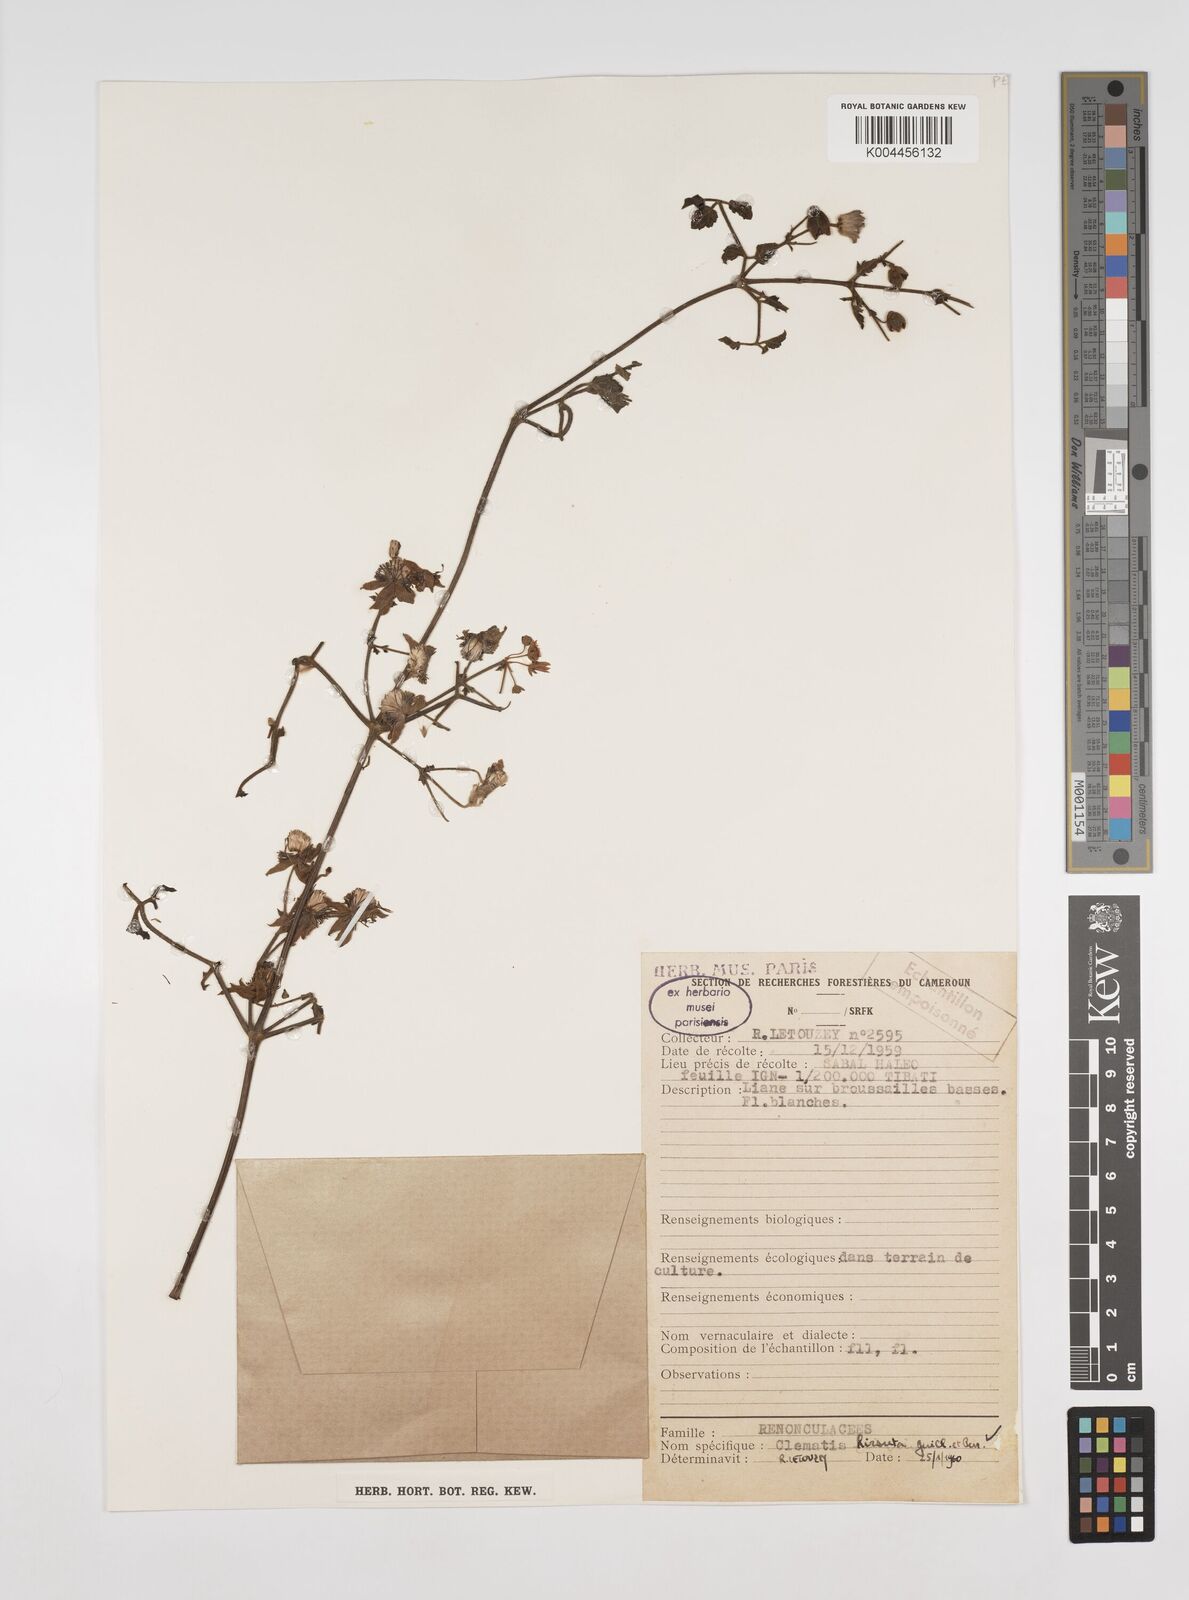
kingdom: Plantae
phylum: Tracheophyta
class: Magnoliopsida
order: Ranunculales
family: Ranunculaceae
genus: Clematis
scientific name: Clematis simensis
